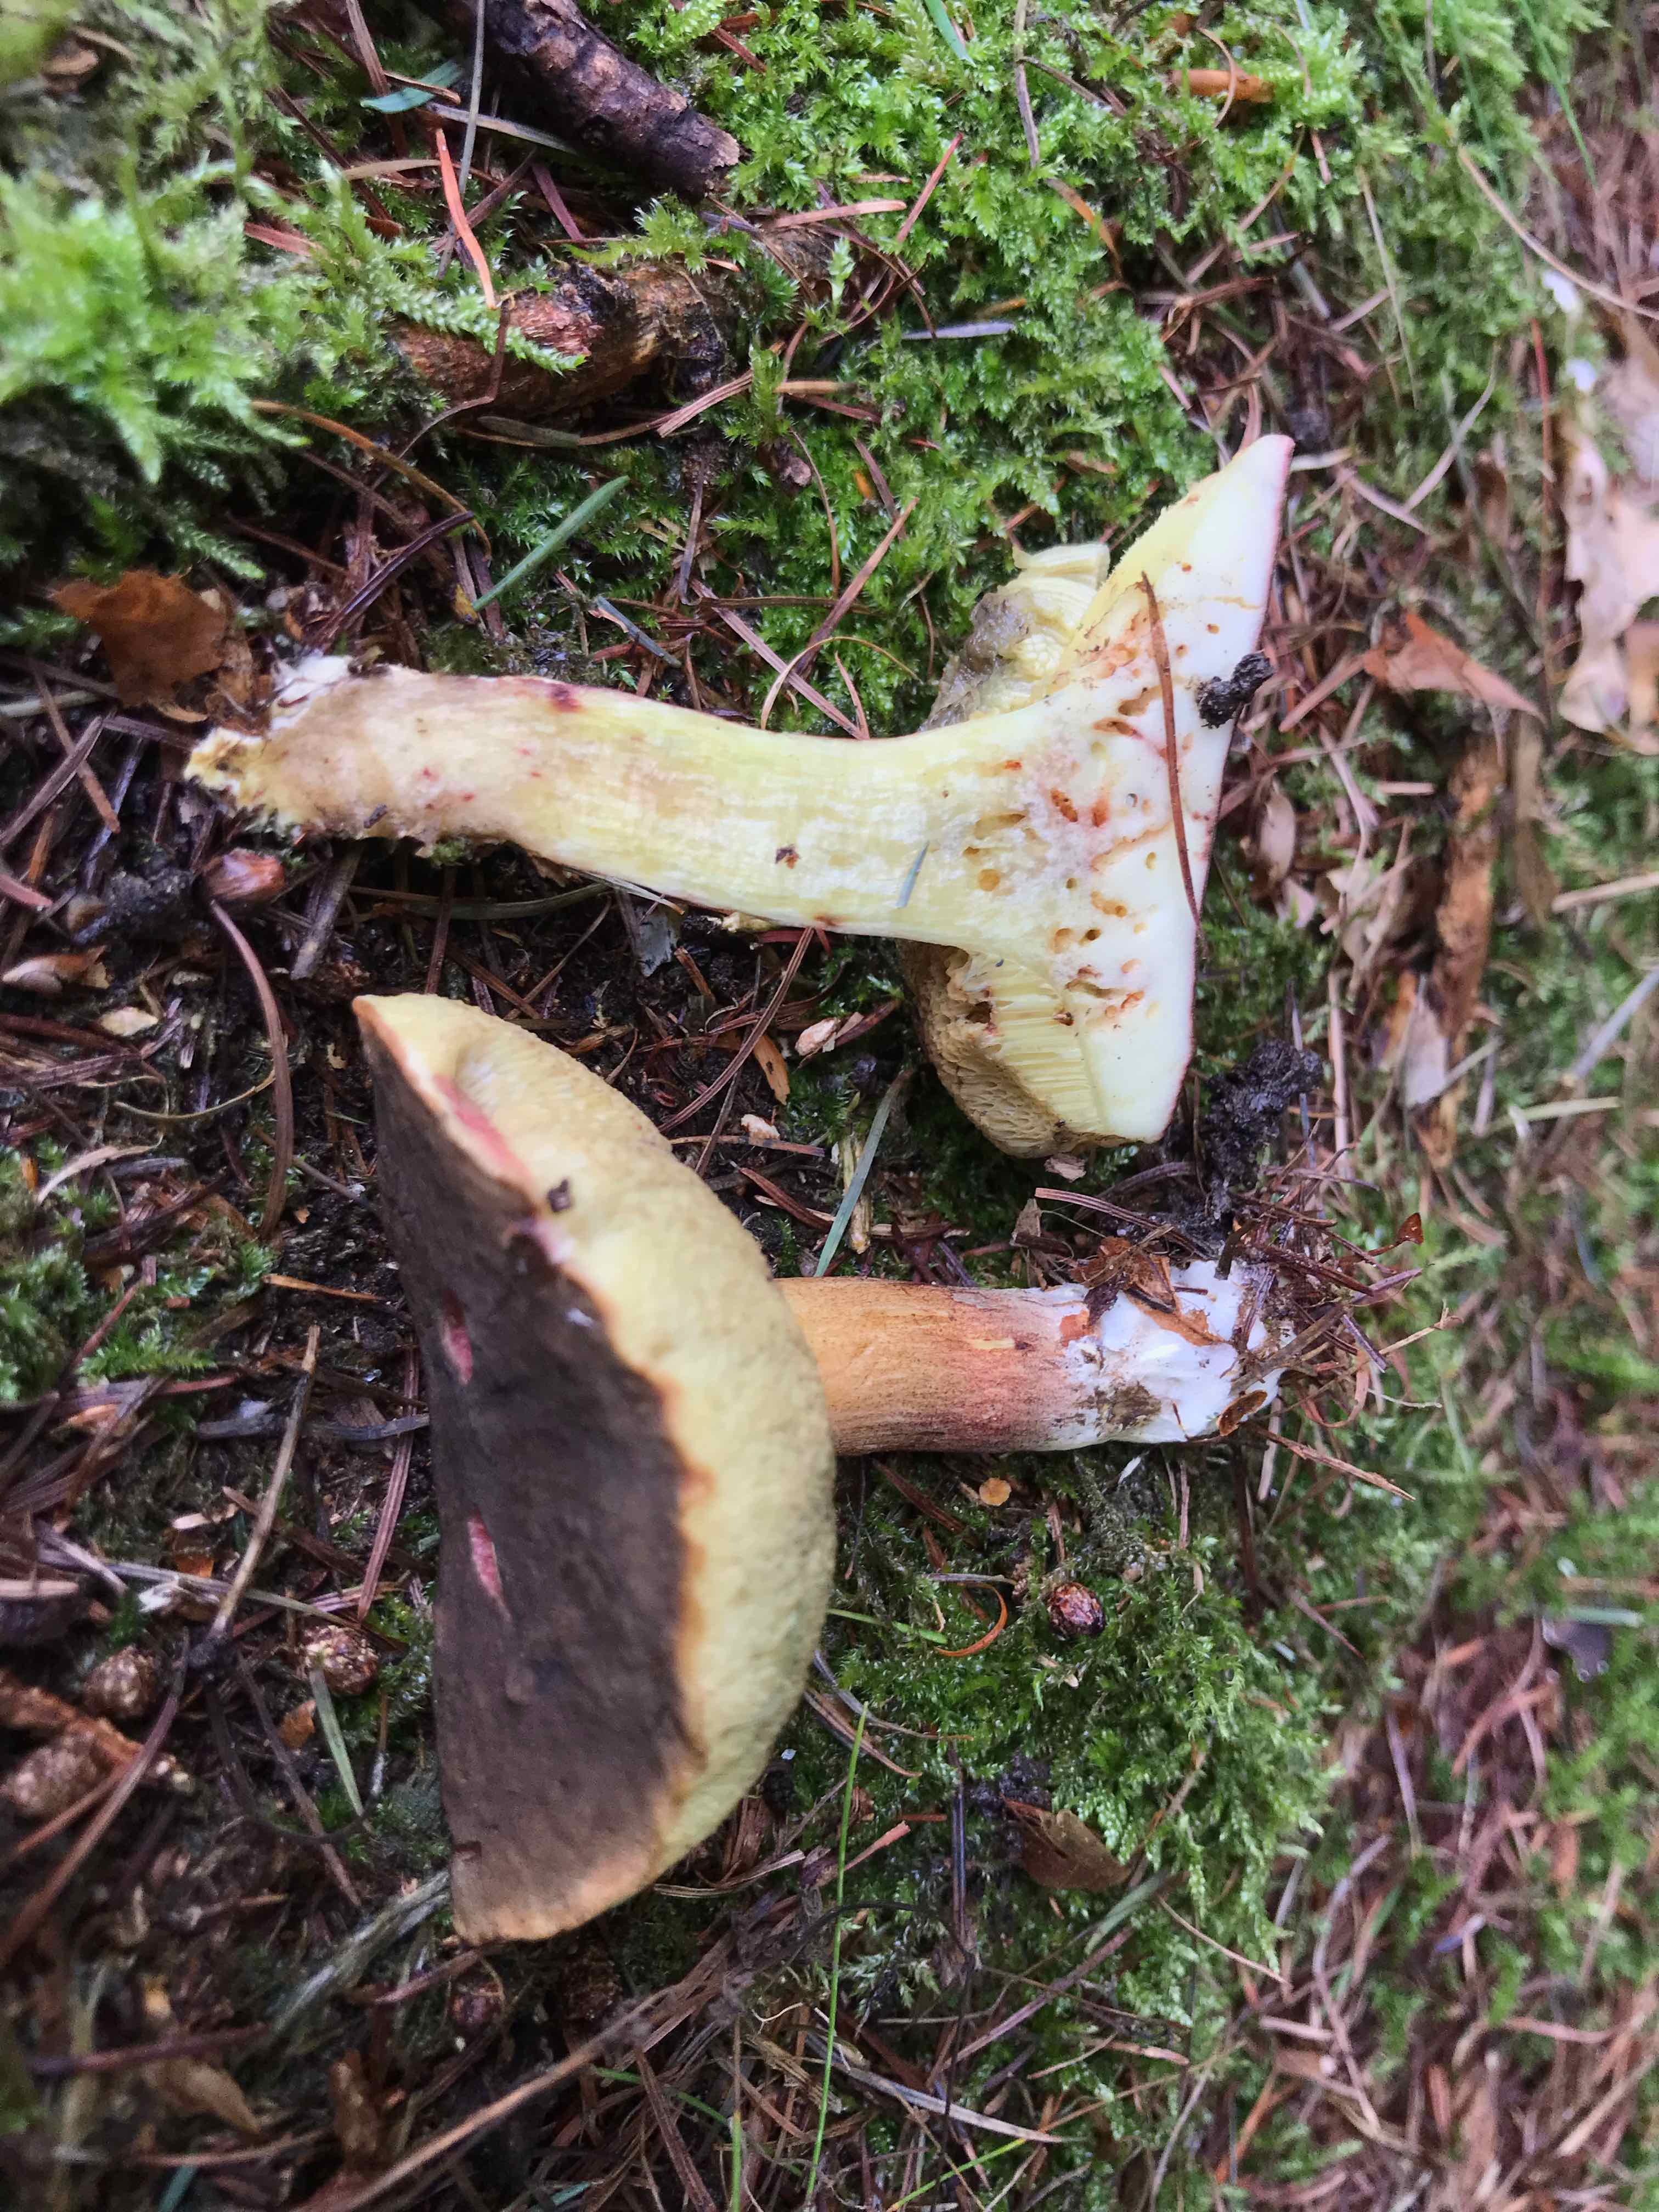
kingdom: Fungi
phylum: Basidiomycota
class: Agaricomycetes
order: Boletales
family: Boletaceae
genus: Xerocomellus
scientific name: Xerocomellus pruinatus
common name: dugget rørhat
